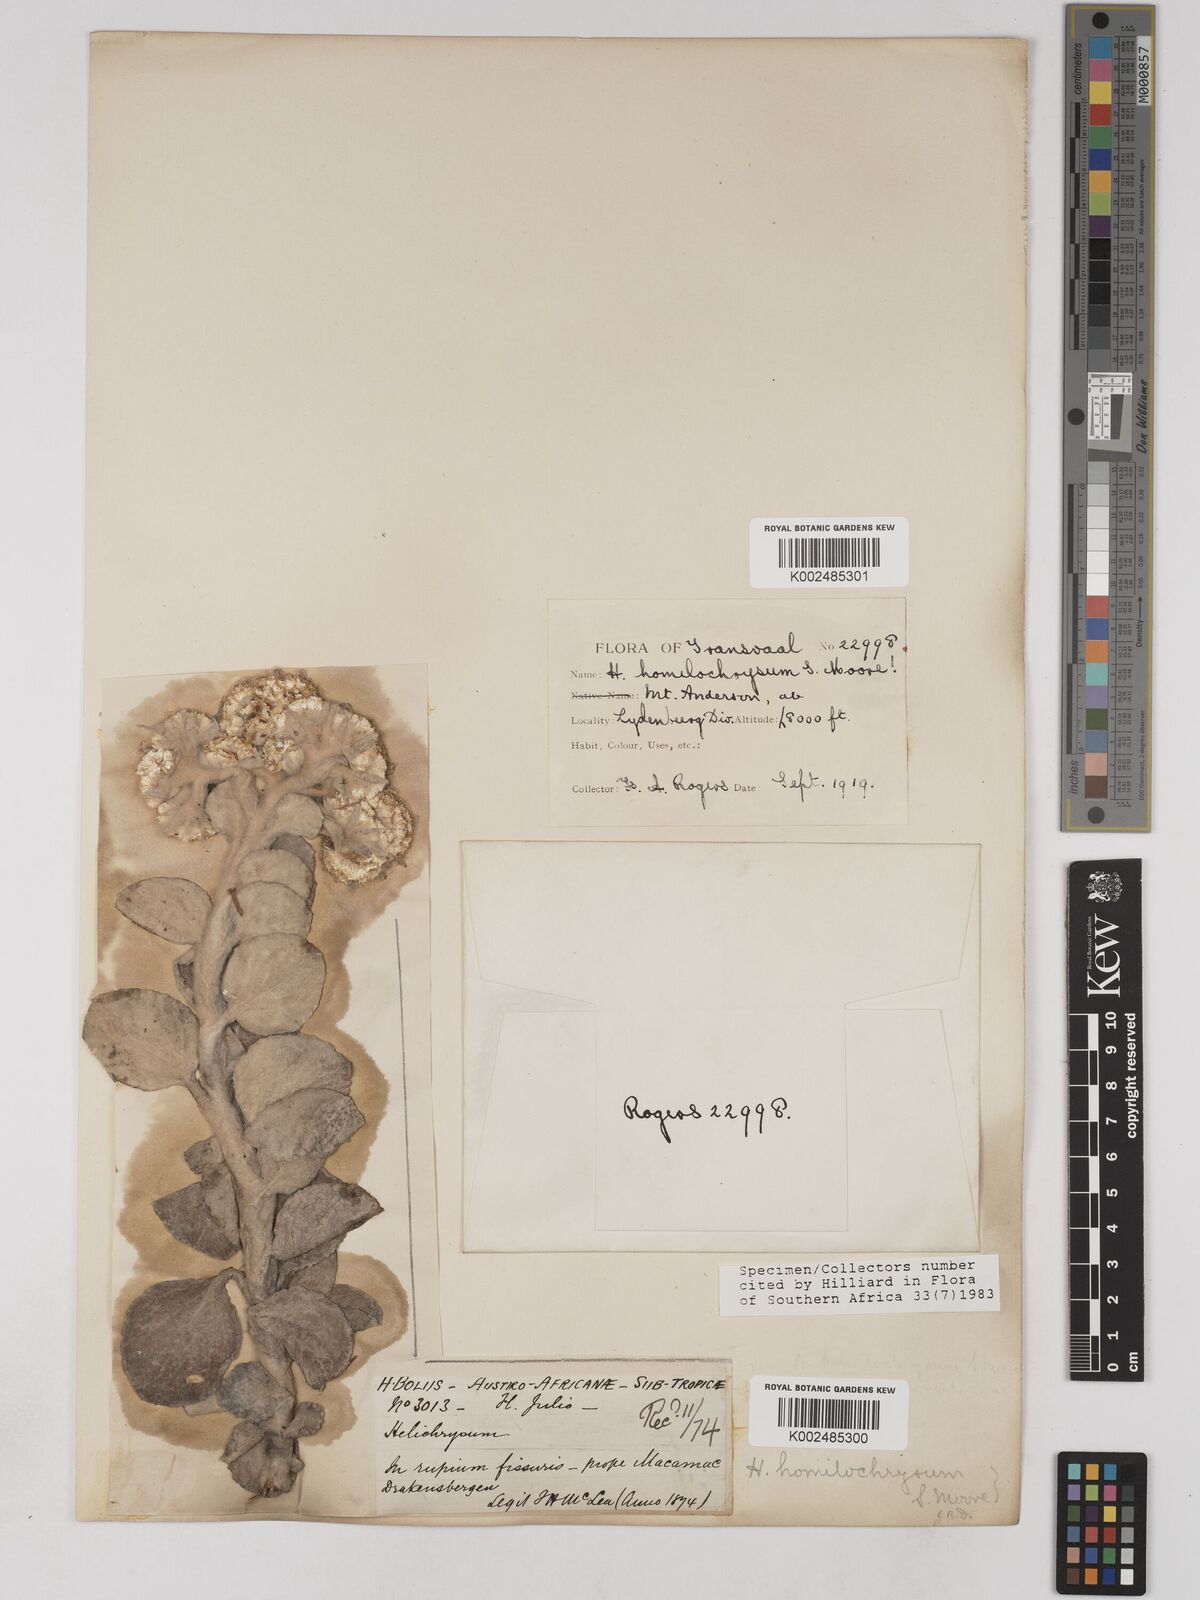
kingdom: Plantae
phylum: Tracheophyta
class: Magnoliopsida
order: Asterales
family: Asteraceae
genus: Helichrysum
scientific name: Helichrysum homilochrysum
